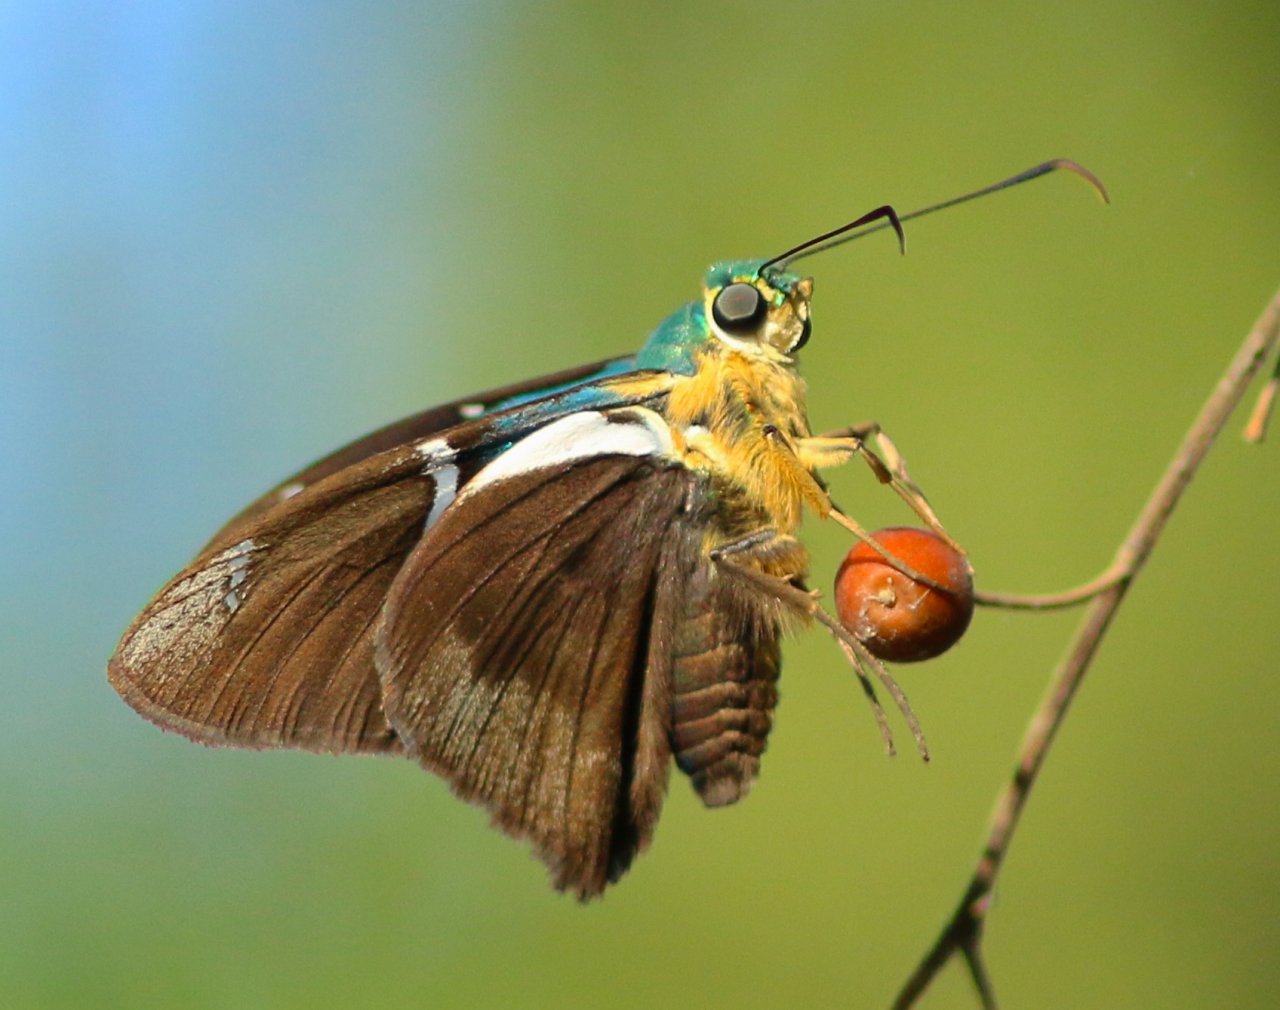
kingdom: Animalia
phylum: Arthropoda
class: Insecta
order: Lepidoptera
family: Hesperiidae
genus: Astraptes
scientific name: Astraptes fulgerator
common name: Two-barred Flasher
